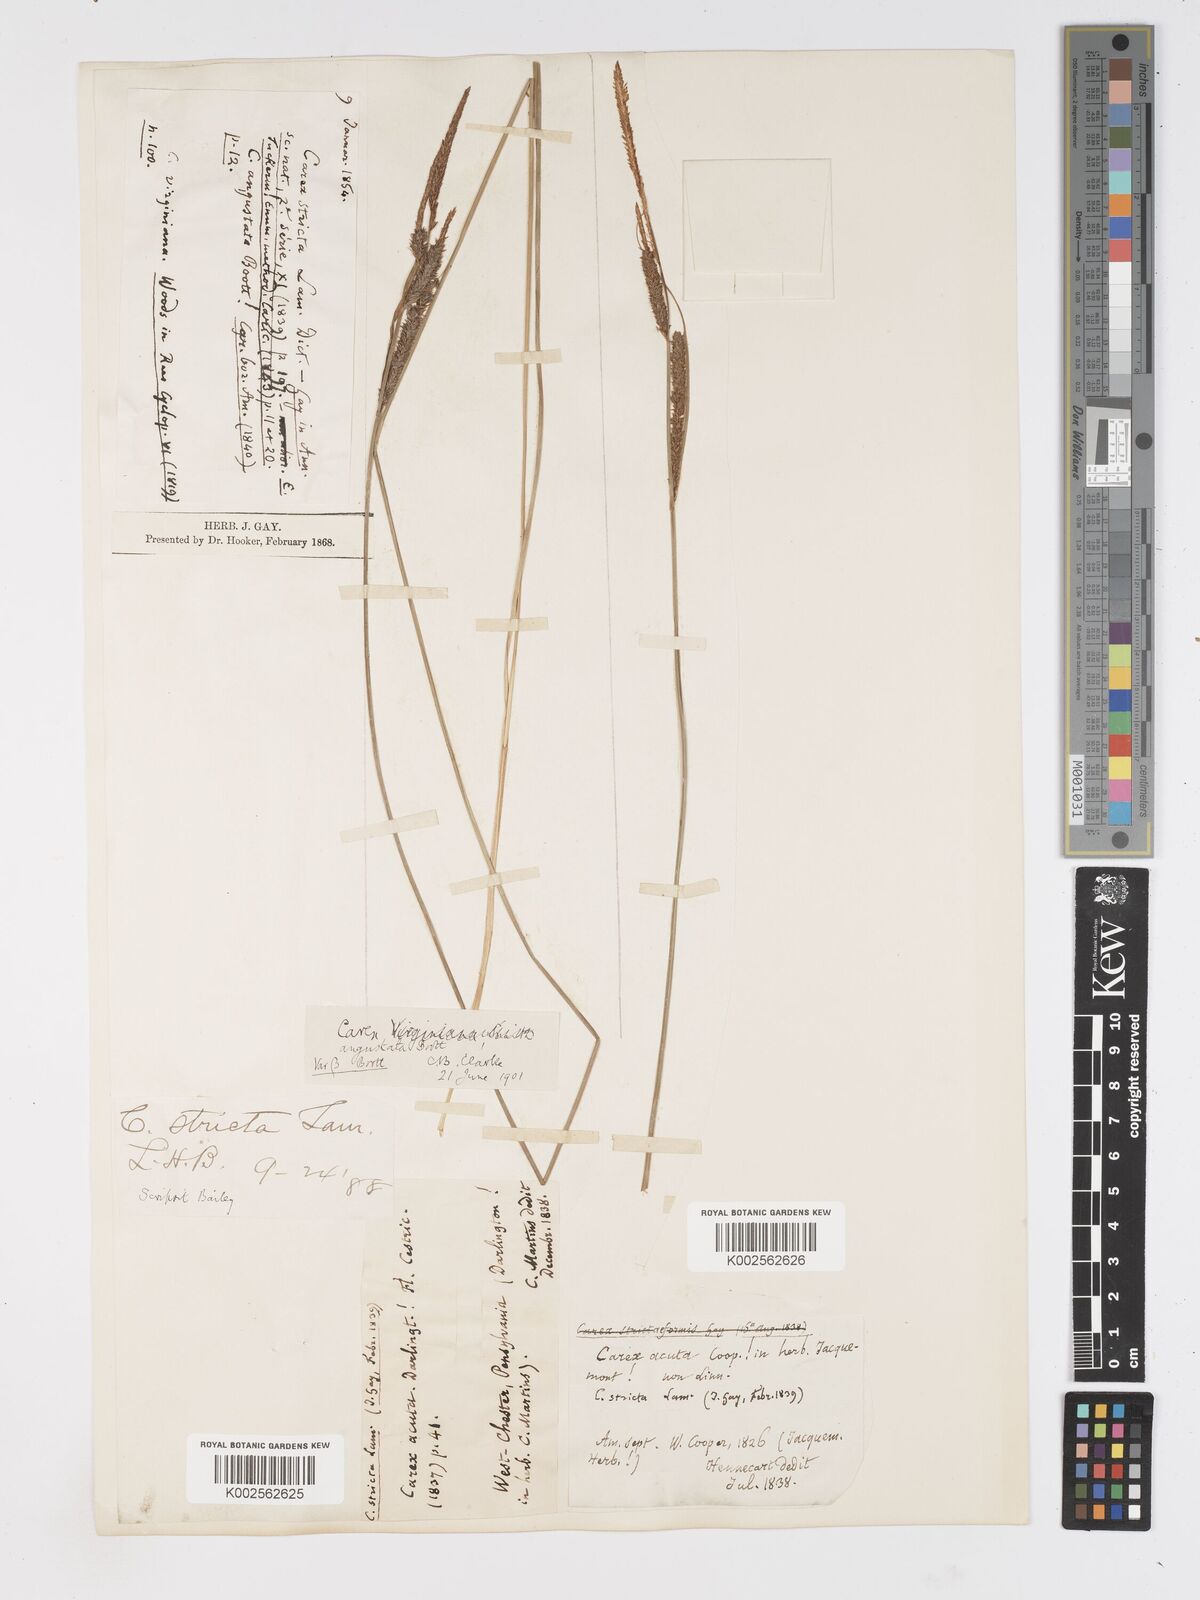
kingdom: Plantae
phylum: Tracheophyta
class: Liliopsida
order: Poales
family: Cyperaceae
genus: Carex
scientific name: Carex stricta
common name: Hummock sedge
